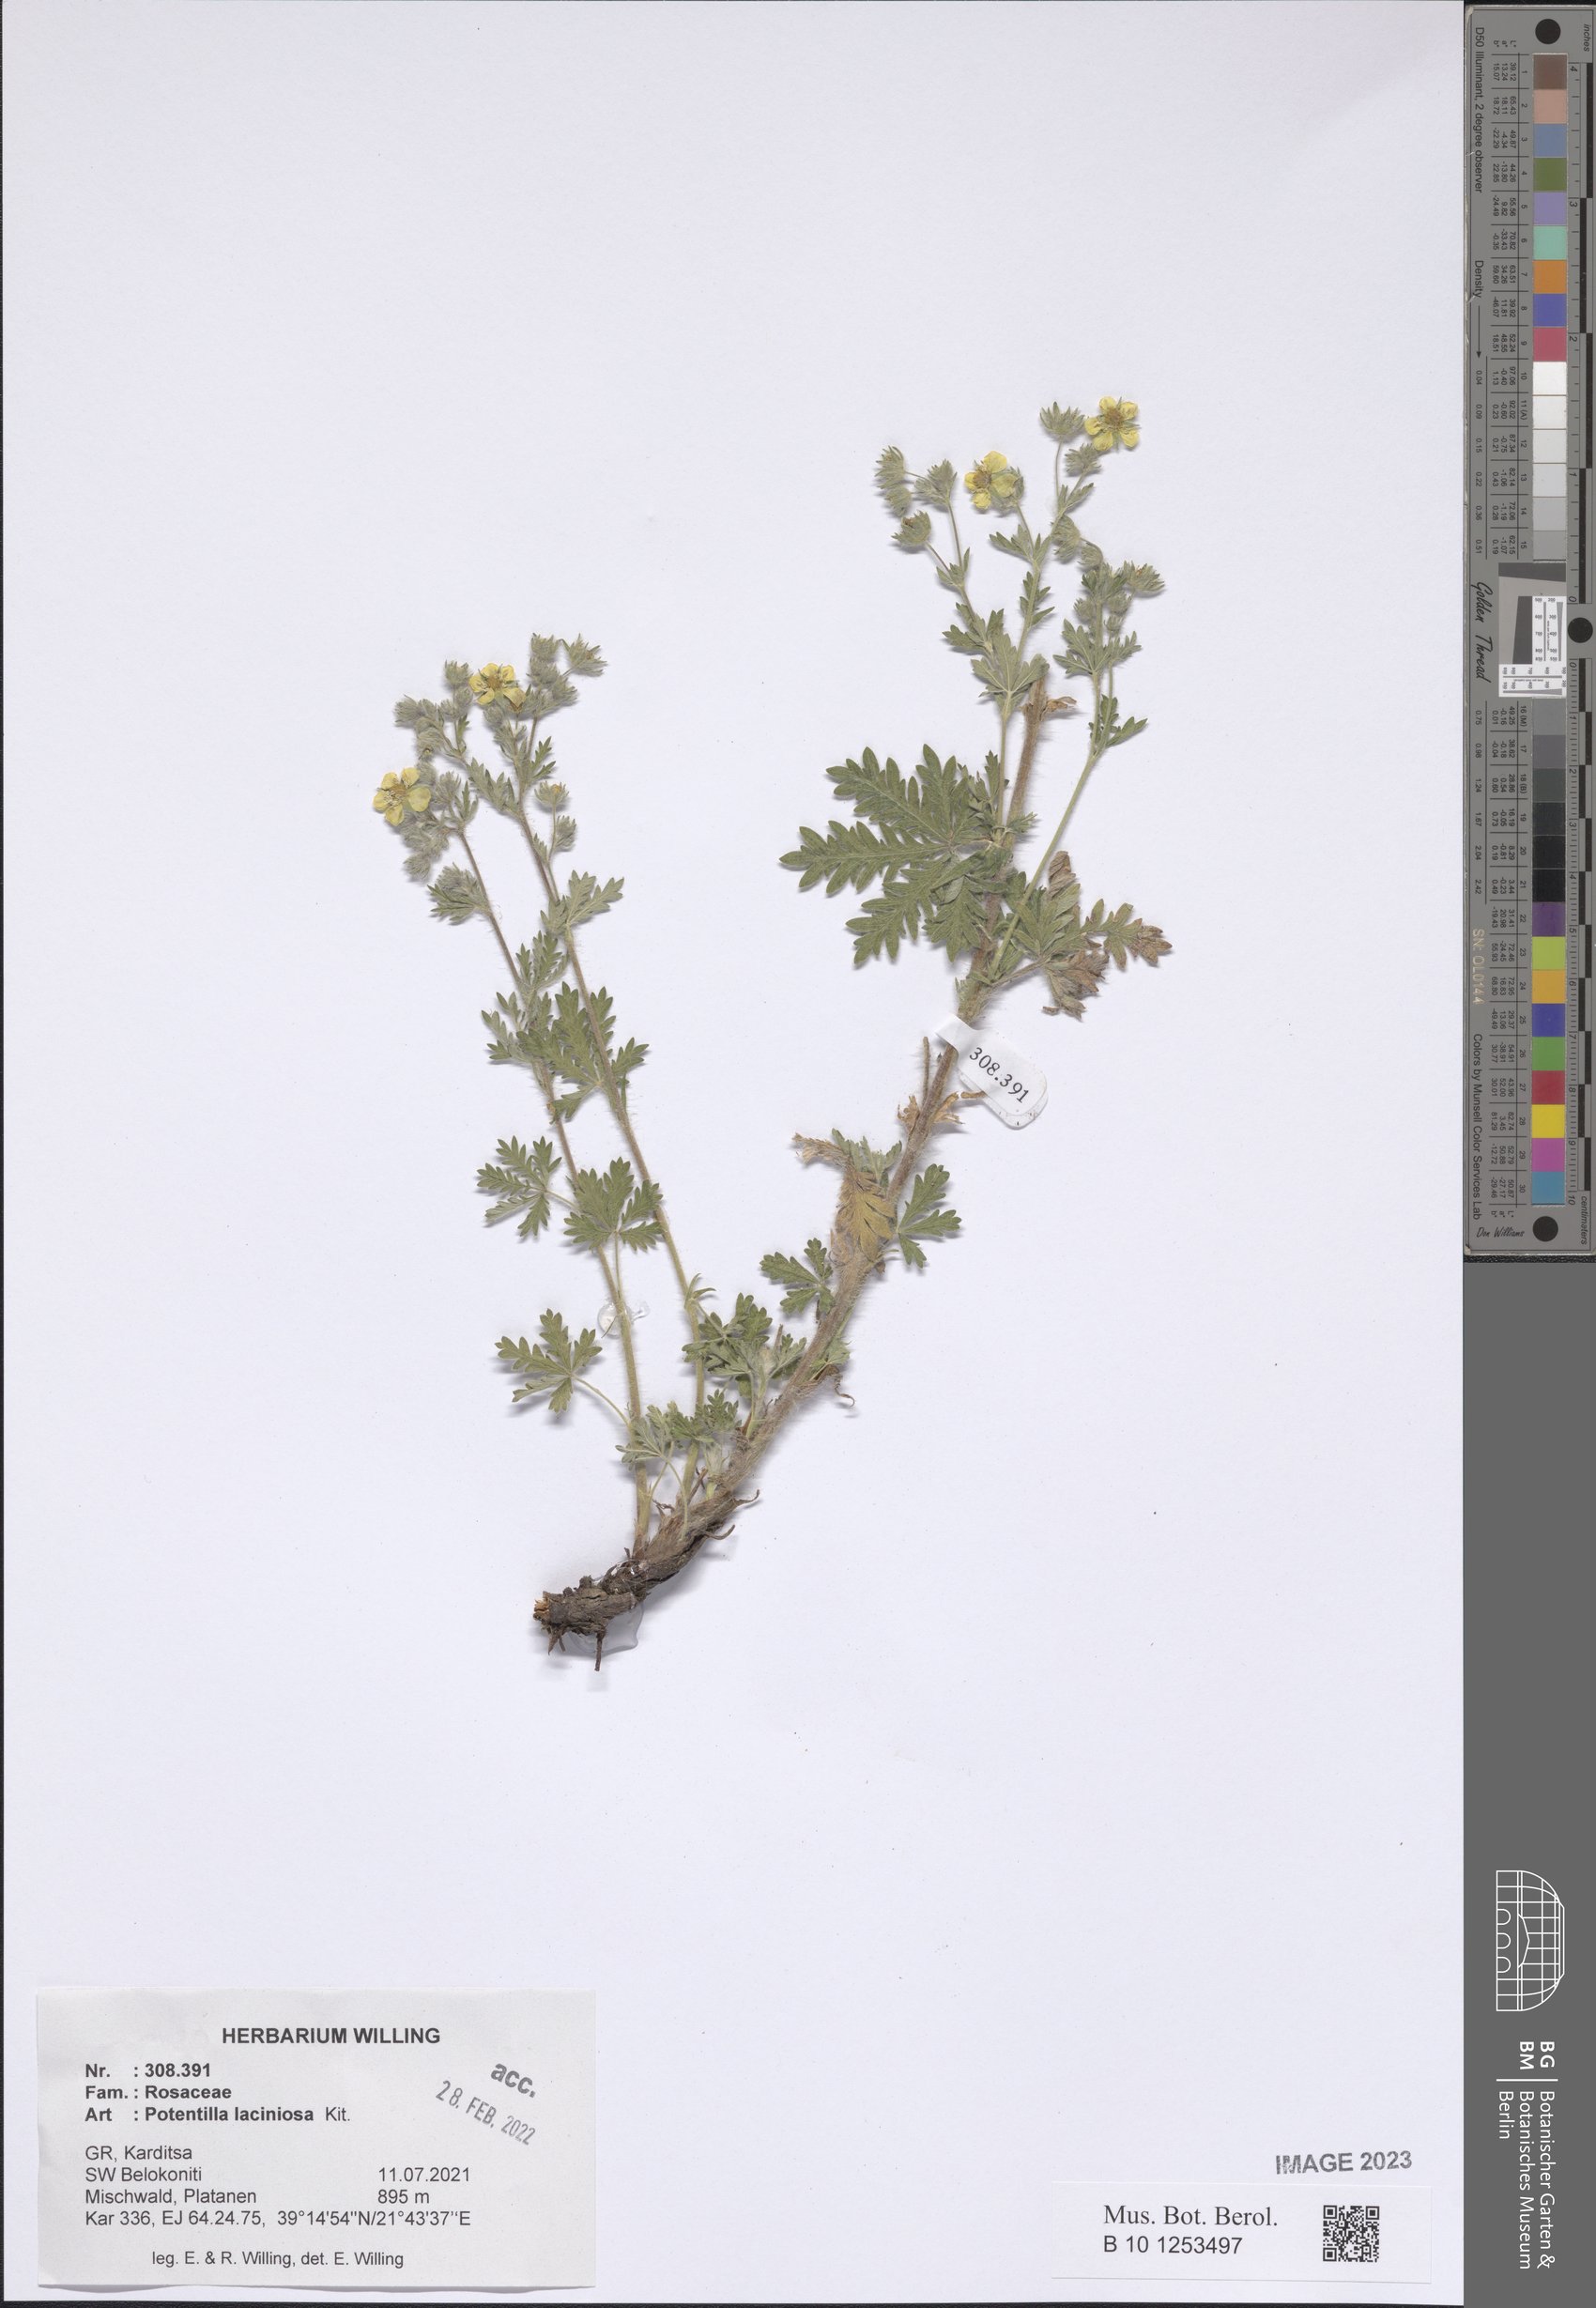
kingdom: Plantae
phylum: Tracheophyta
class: Magnoliopsida
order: Rosales
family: Rosaceae
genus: Potentilla
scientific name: Potentilla recta
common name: Sulphur cinquefoil
